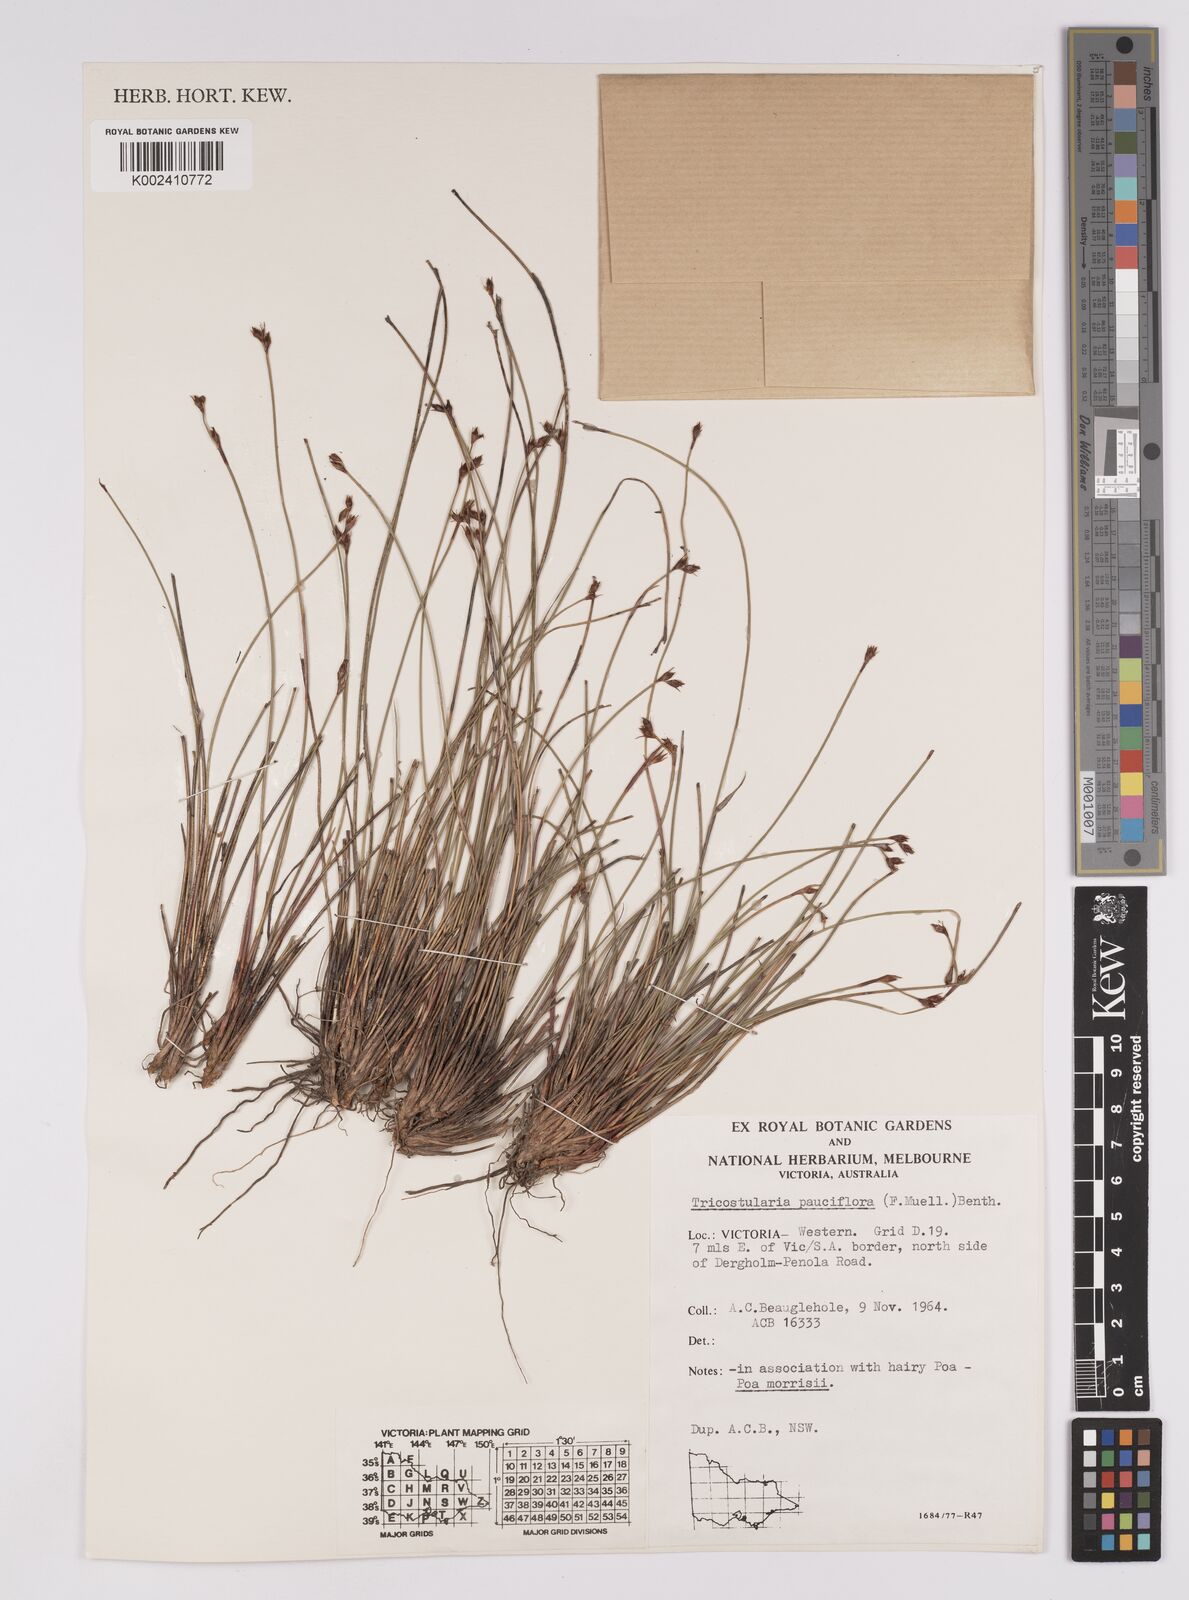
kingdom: Plantae
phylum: Tracheophyta
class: Liliopsida
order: Poales
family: Cyperaceae
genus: Tricostularia
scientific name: Tricostularia pauciflora
